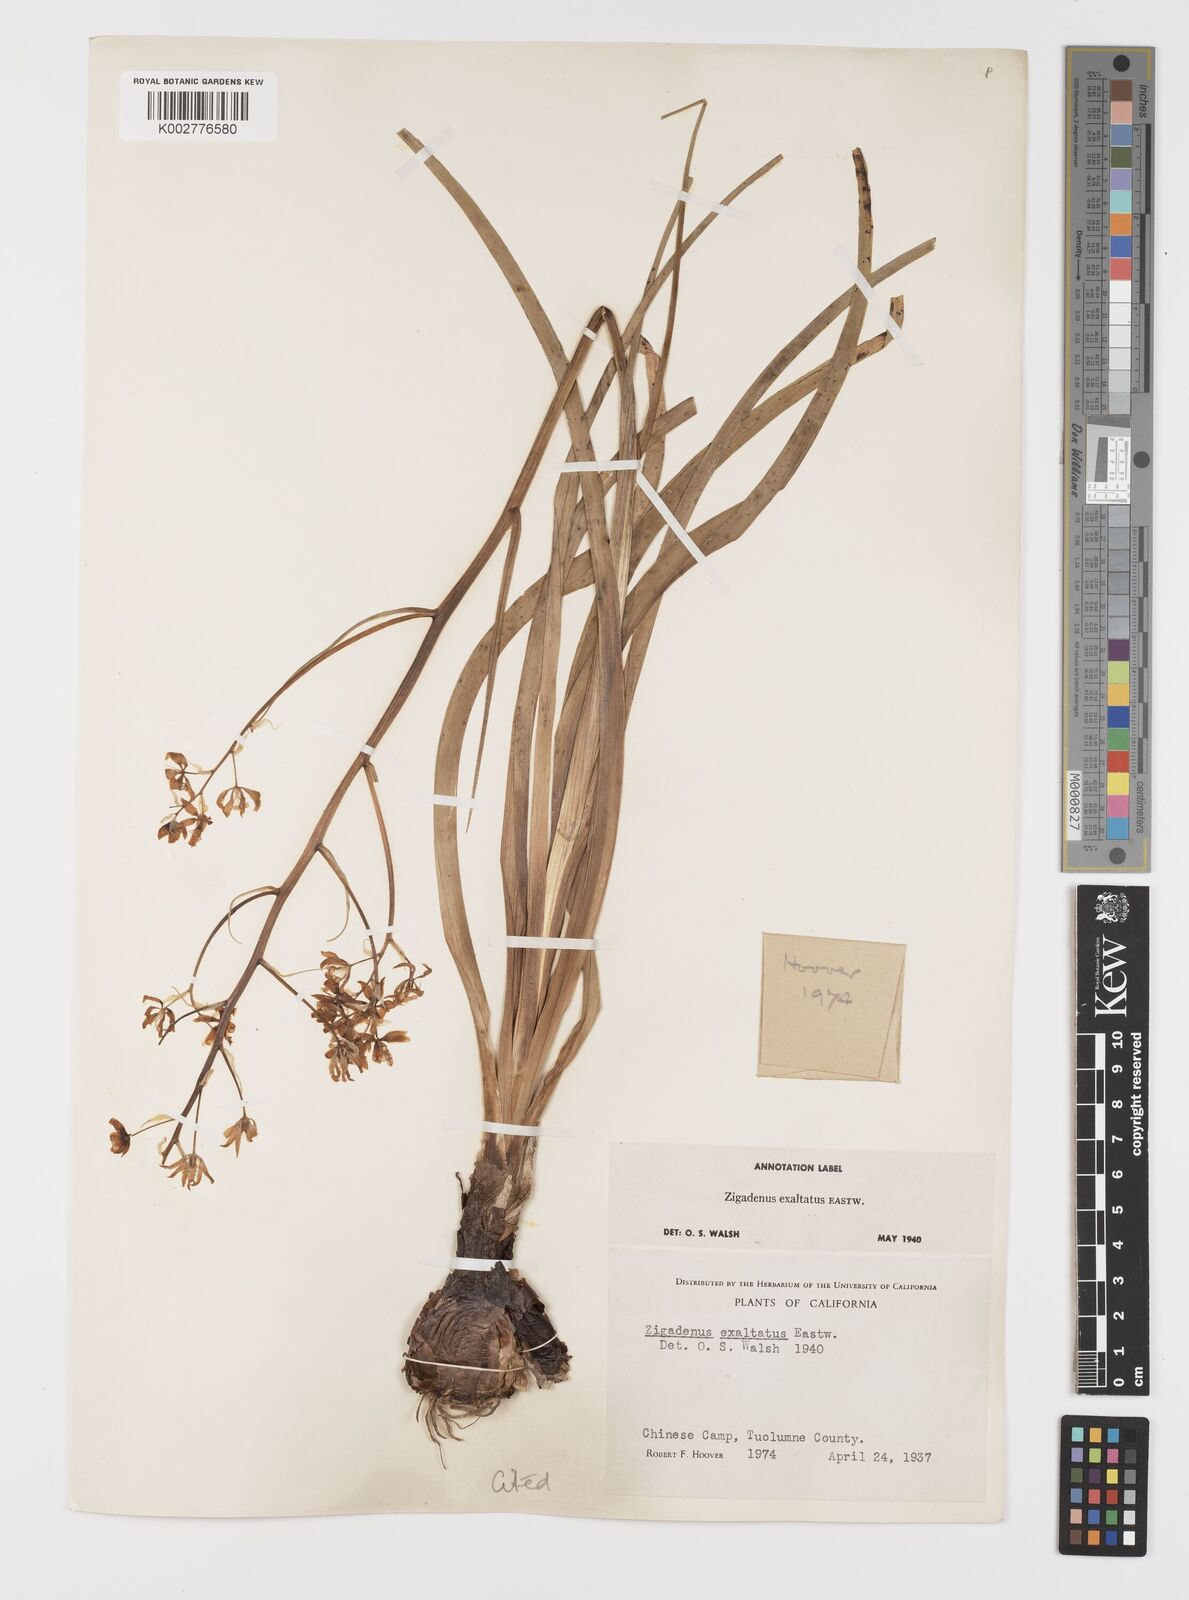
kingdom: Plantae
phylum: Tracheophyta
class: Liliopsida
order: Liliales
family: Melanthiaceae
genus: Toxicoscordion
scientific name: Toxicoscordion fremontii
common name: Fremont's death camas
